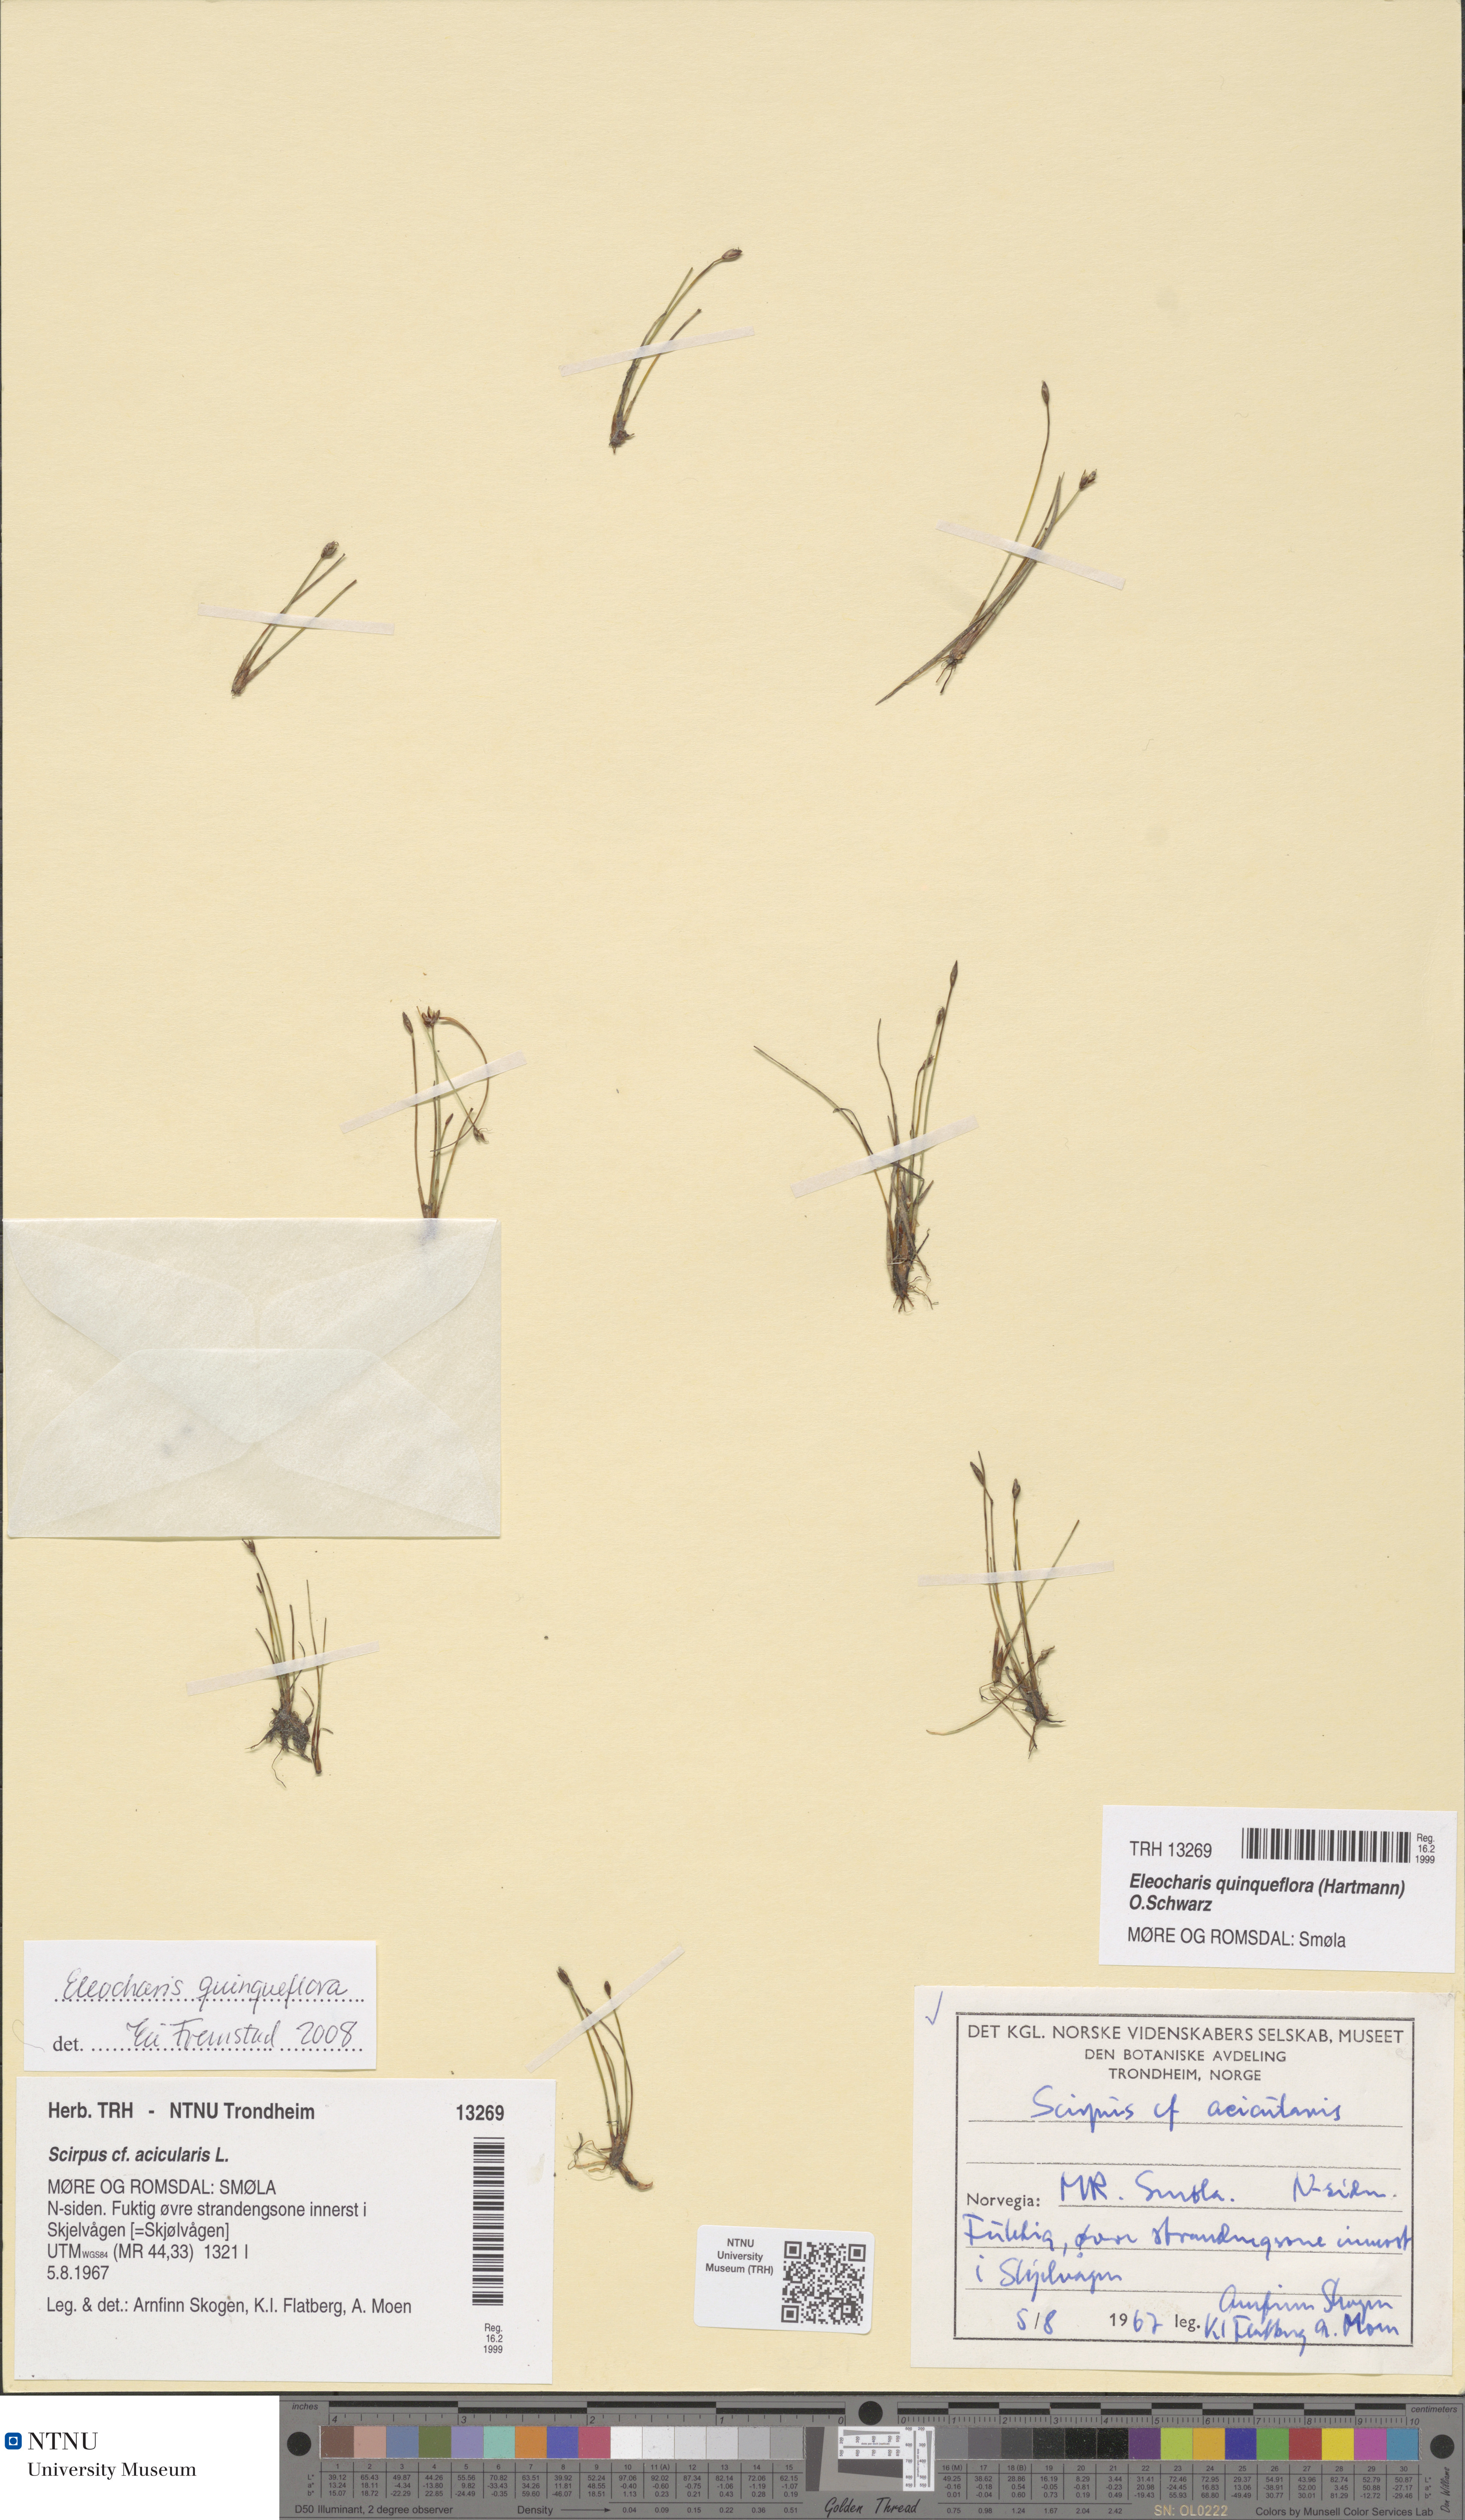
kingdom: Plantae
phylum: Tracheophyta
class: Liliopsida
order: Poales
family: Cyperaceae
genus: Eleocharis
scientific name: Eleocharis quinqueflora
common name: Few-flowered spike-rush
